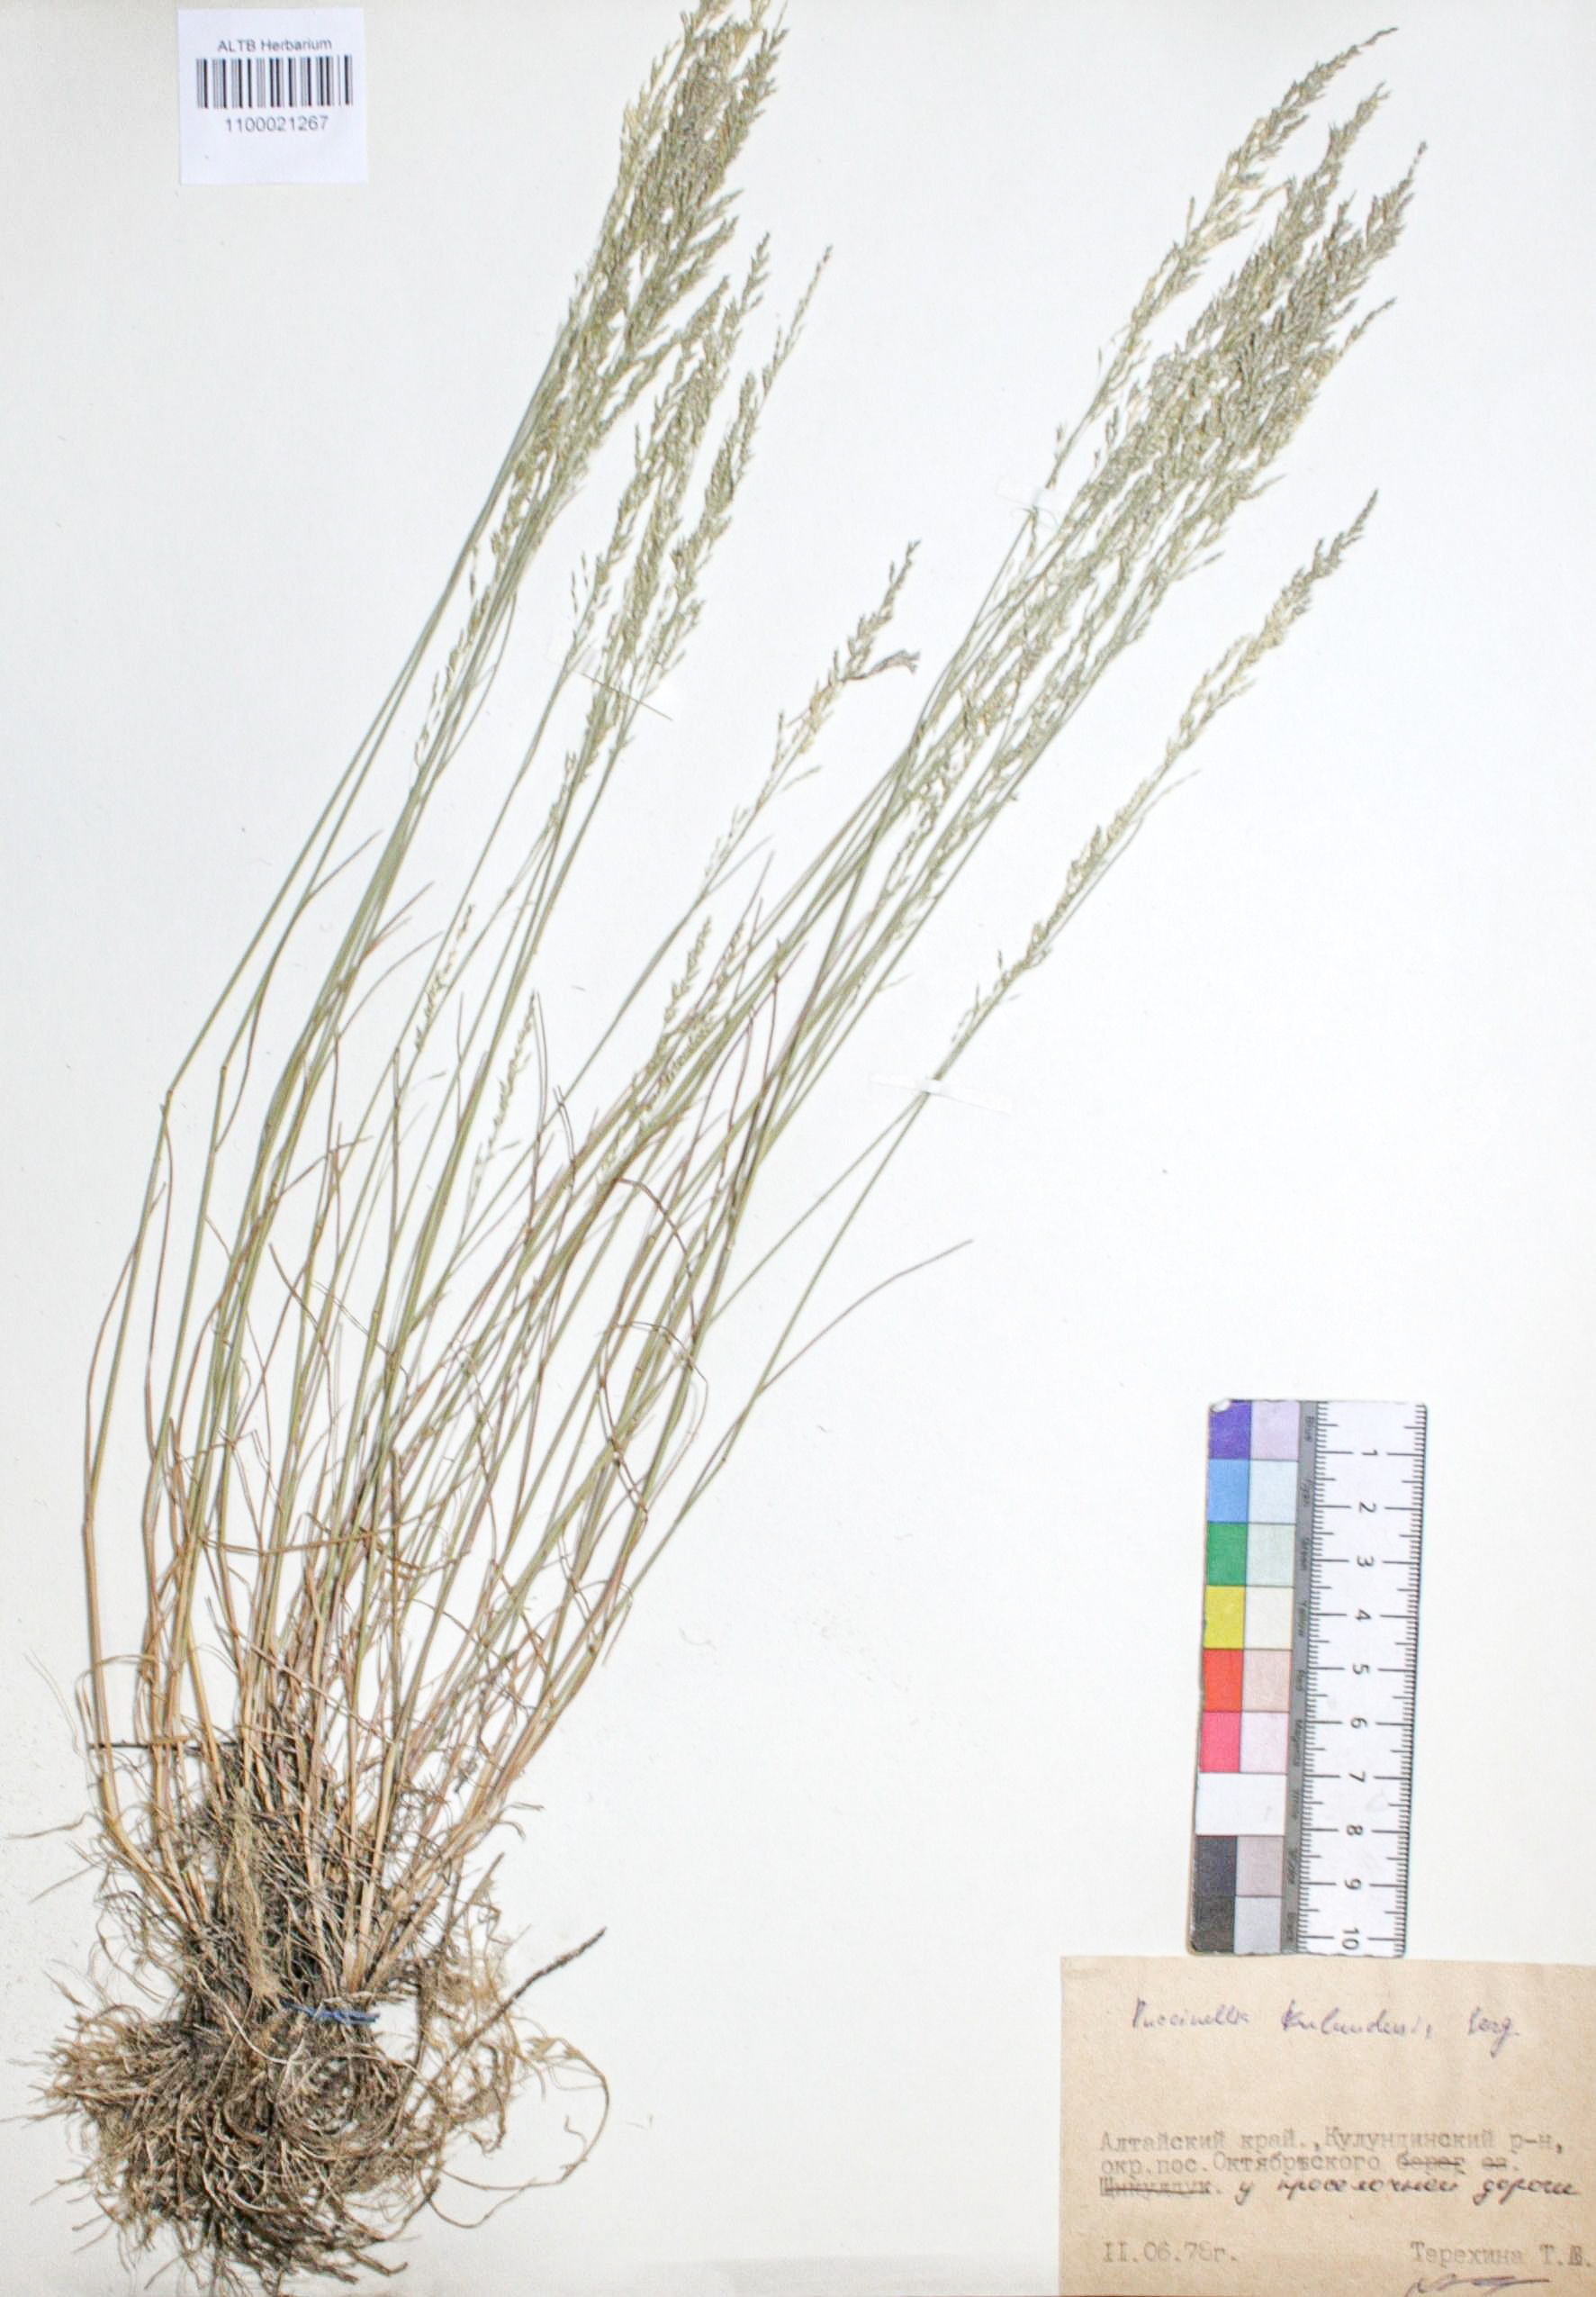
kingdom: Plantae
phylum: Tracheophyta
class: Liliopsida
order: Poales
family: Poaceae
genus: Puccinellia
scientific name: Puccinellia manchuriensis
